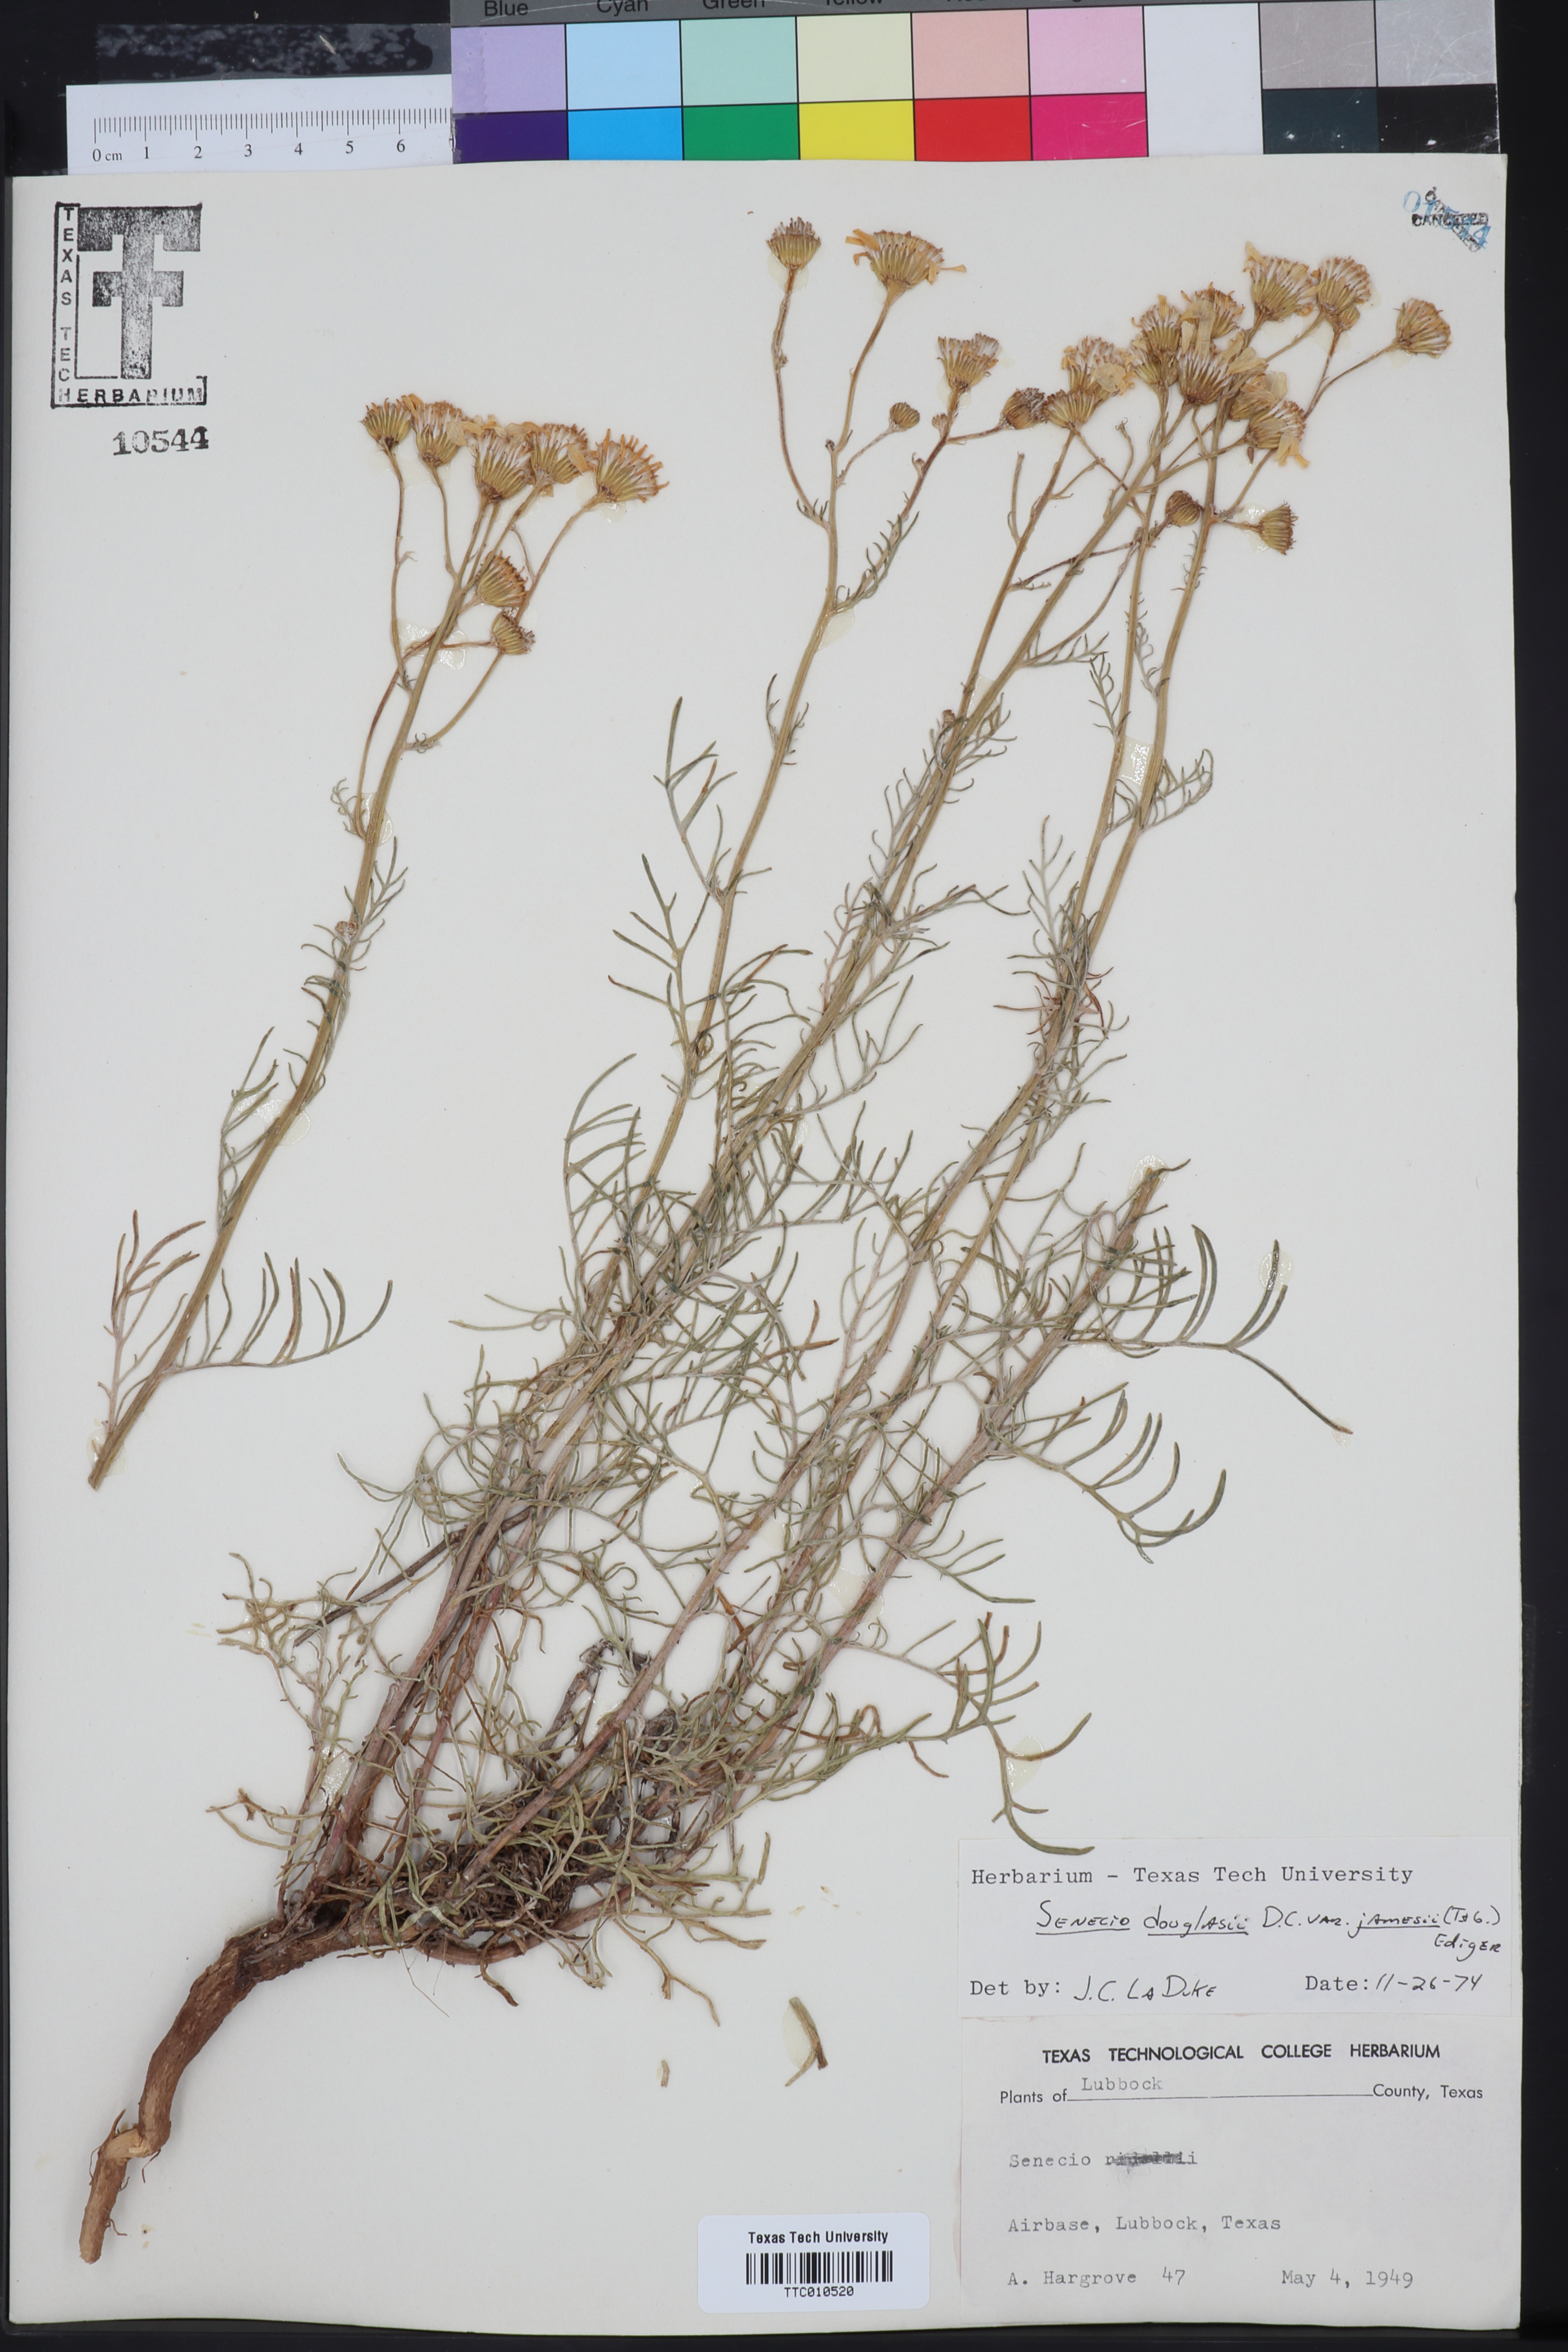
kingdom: Plantae
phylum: Tracheophyta
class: Magnoliopsida
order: Asterales
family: Asteraceae
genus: Senecio
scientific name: Senecio flaccidus
